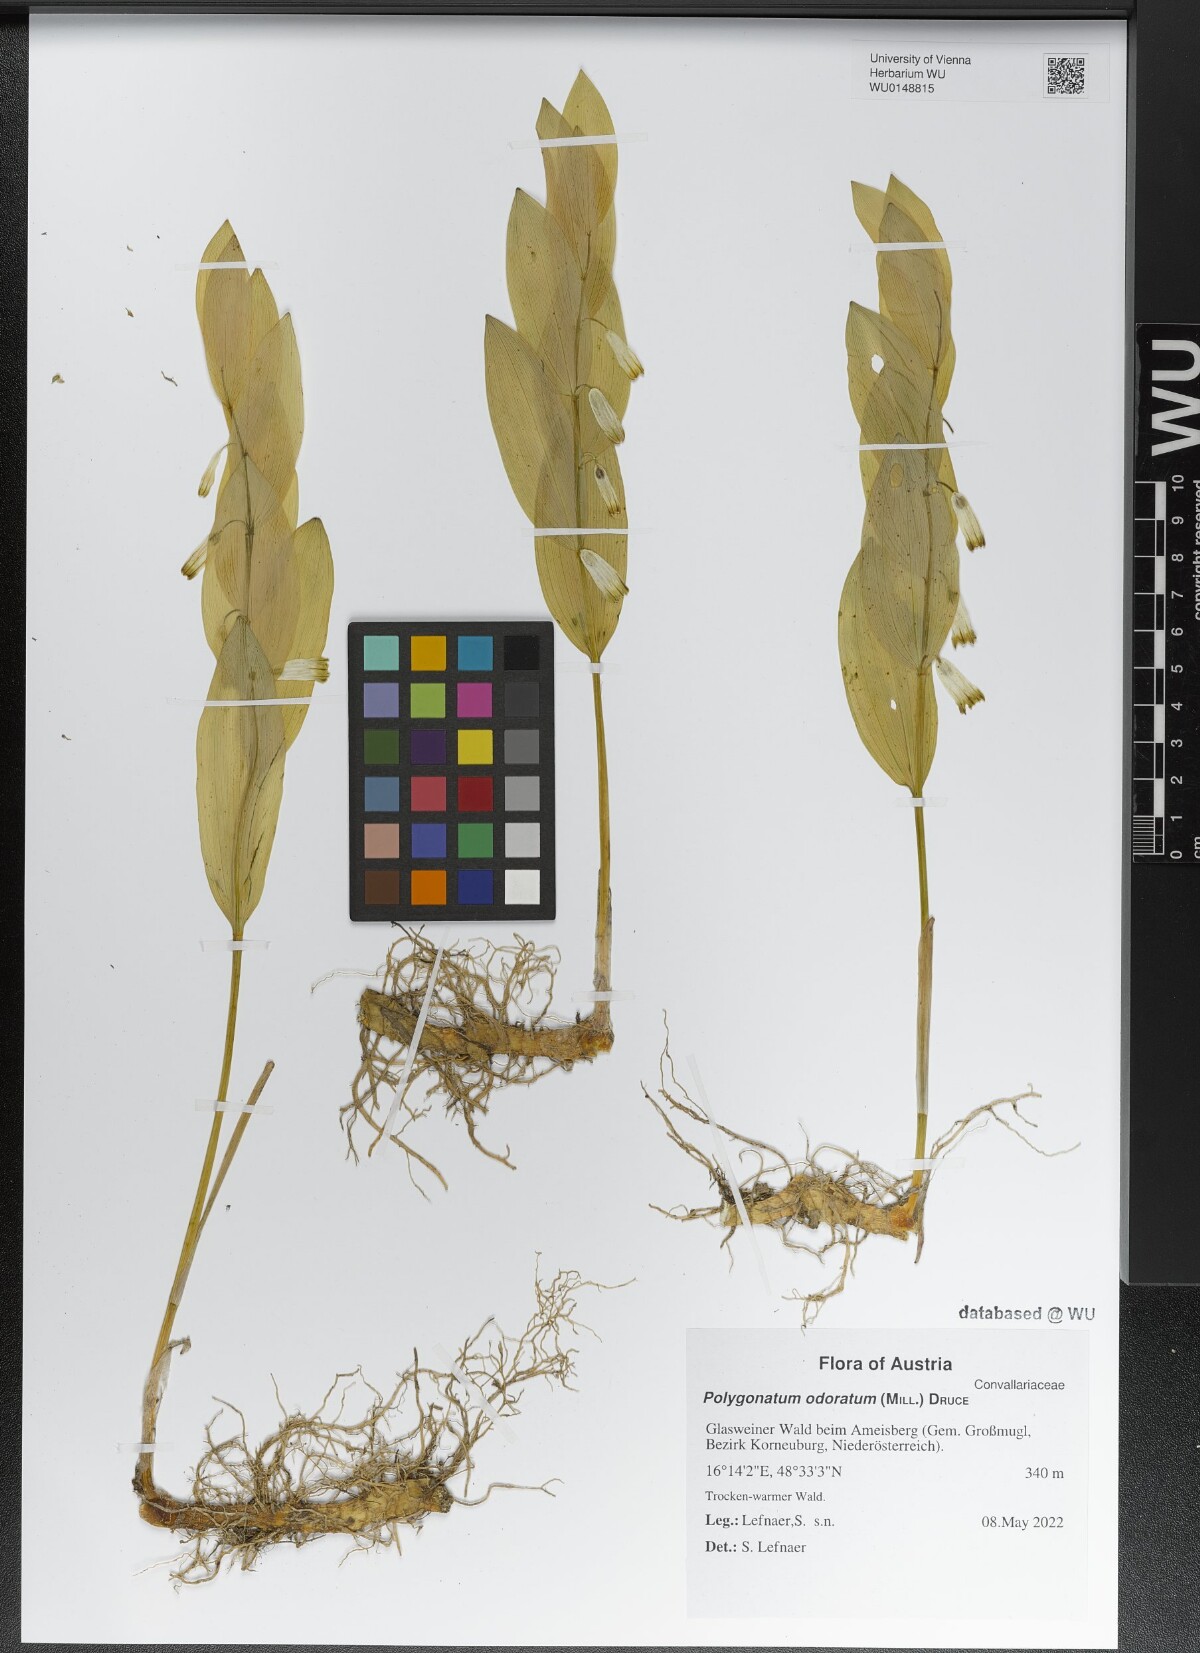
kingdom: Plantae
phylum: Tracheophyta
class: Liliopsida
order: Asparagales
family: Asparagaceae
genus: Polygonatum
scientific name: Polygonatum odoratum
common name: Angular solomon's-seal
